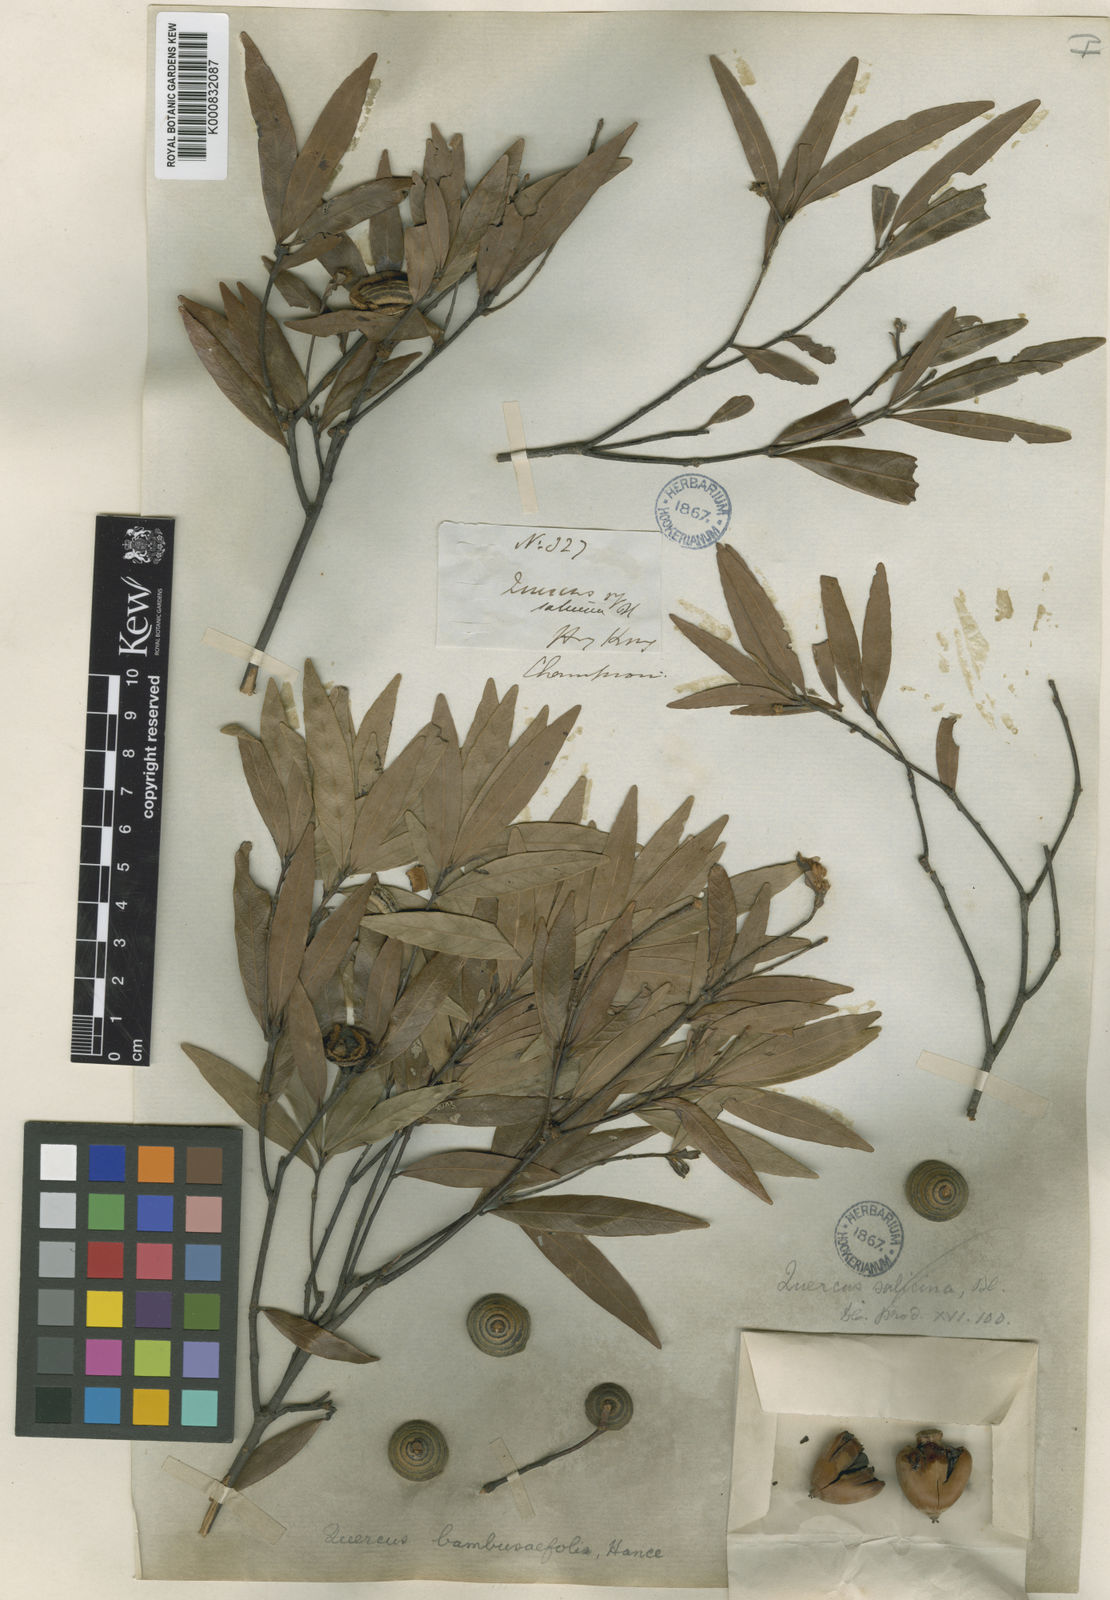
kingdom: Plantae
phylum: Tracheophyta
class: Magnoliopsida
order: Fagales
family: Fagaceae
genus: Quercus
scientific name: Quercus bambusifolia
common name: Bamboo-leaf oak
